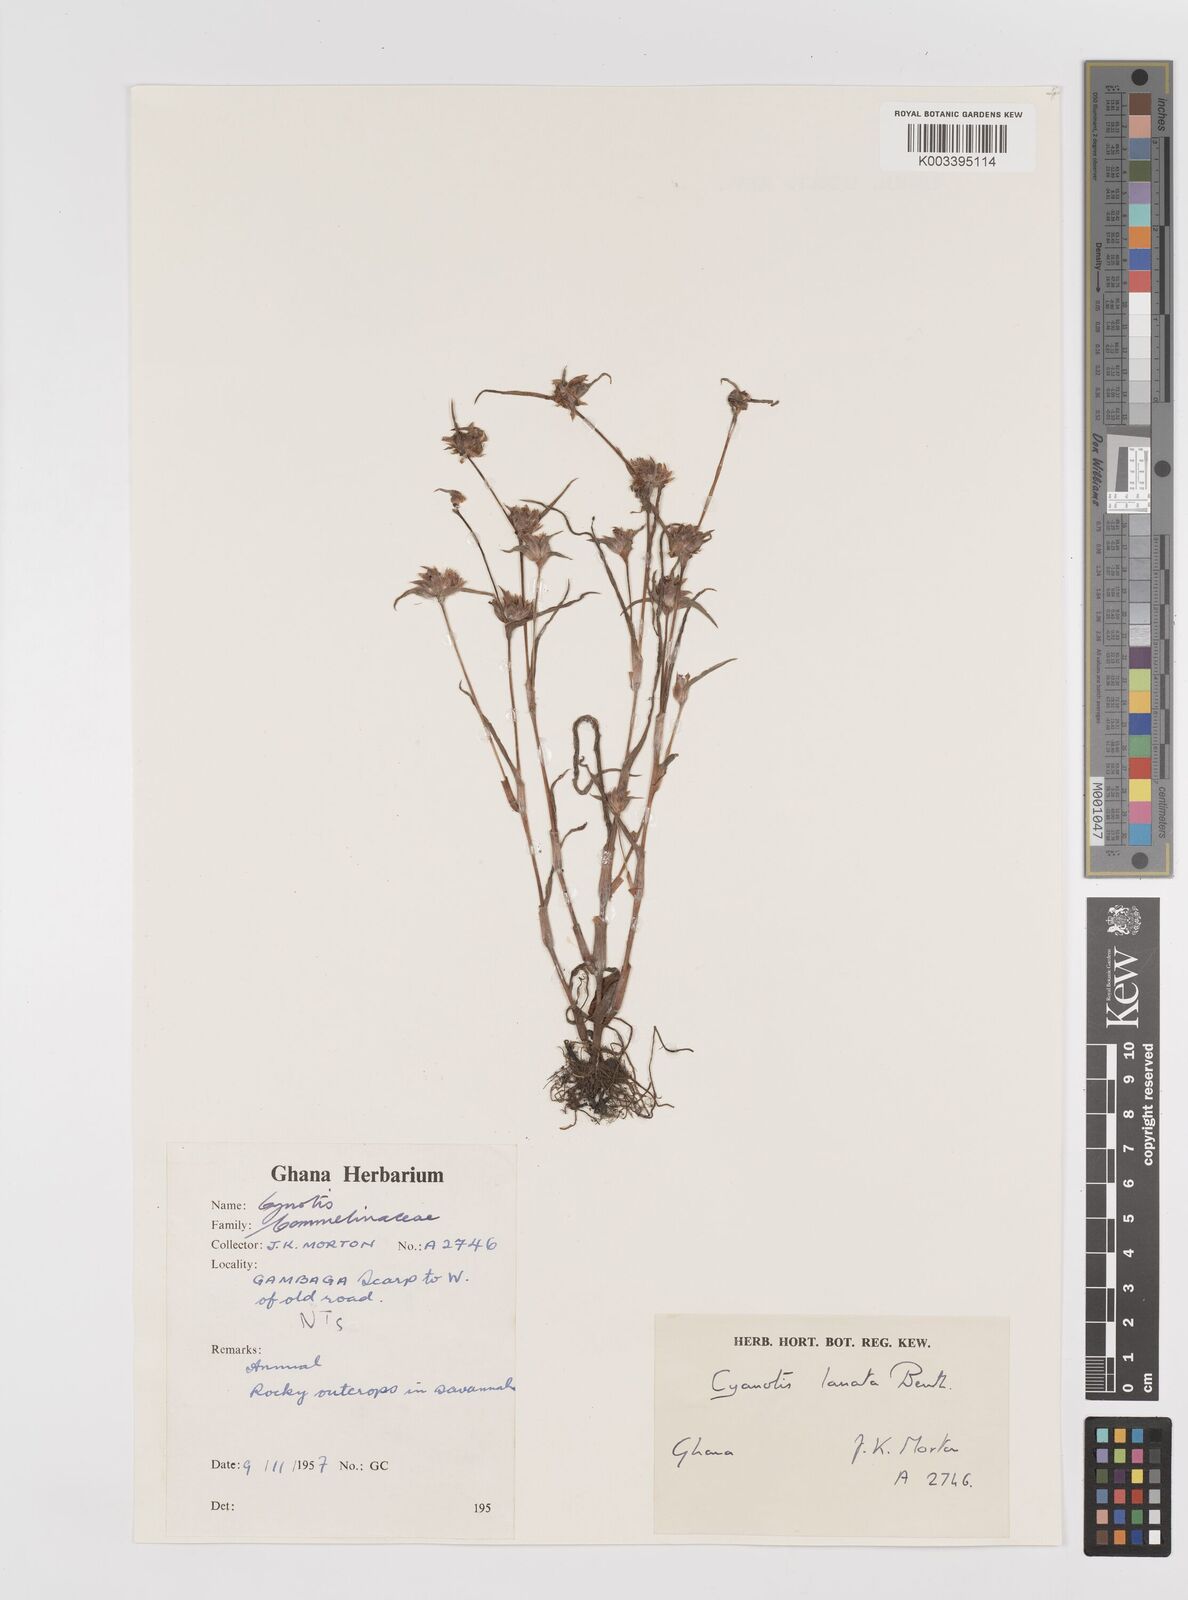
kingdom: Plantae
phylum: Tracheophyta
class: Liliopsida
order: Commelinales
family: Commelinaceae
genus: Cyanotis
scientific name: Cyanotis lanata
